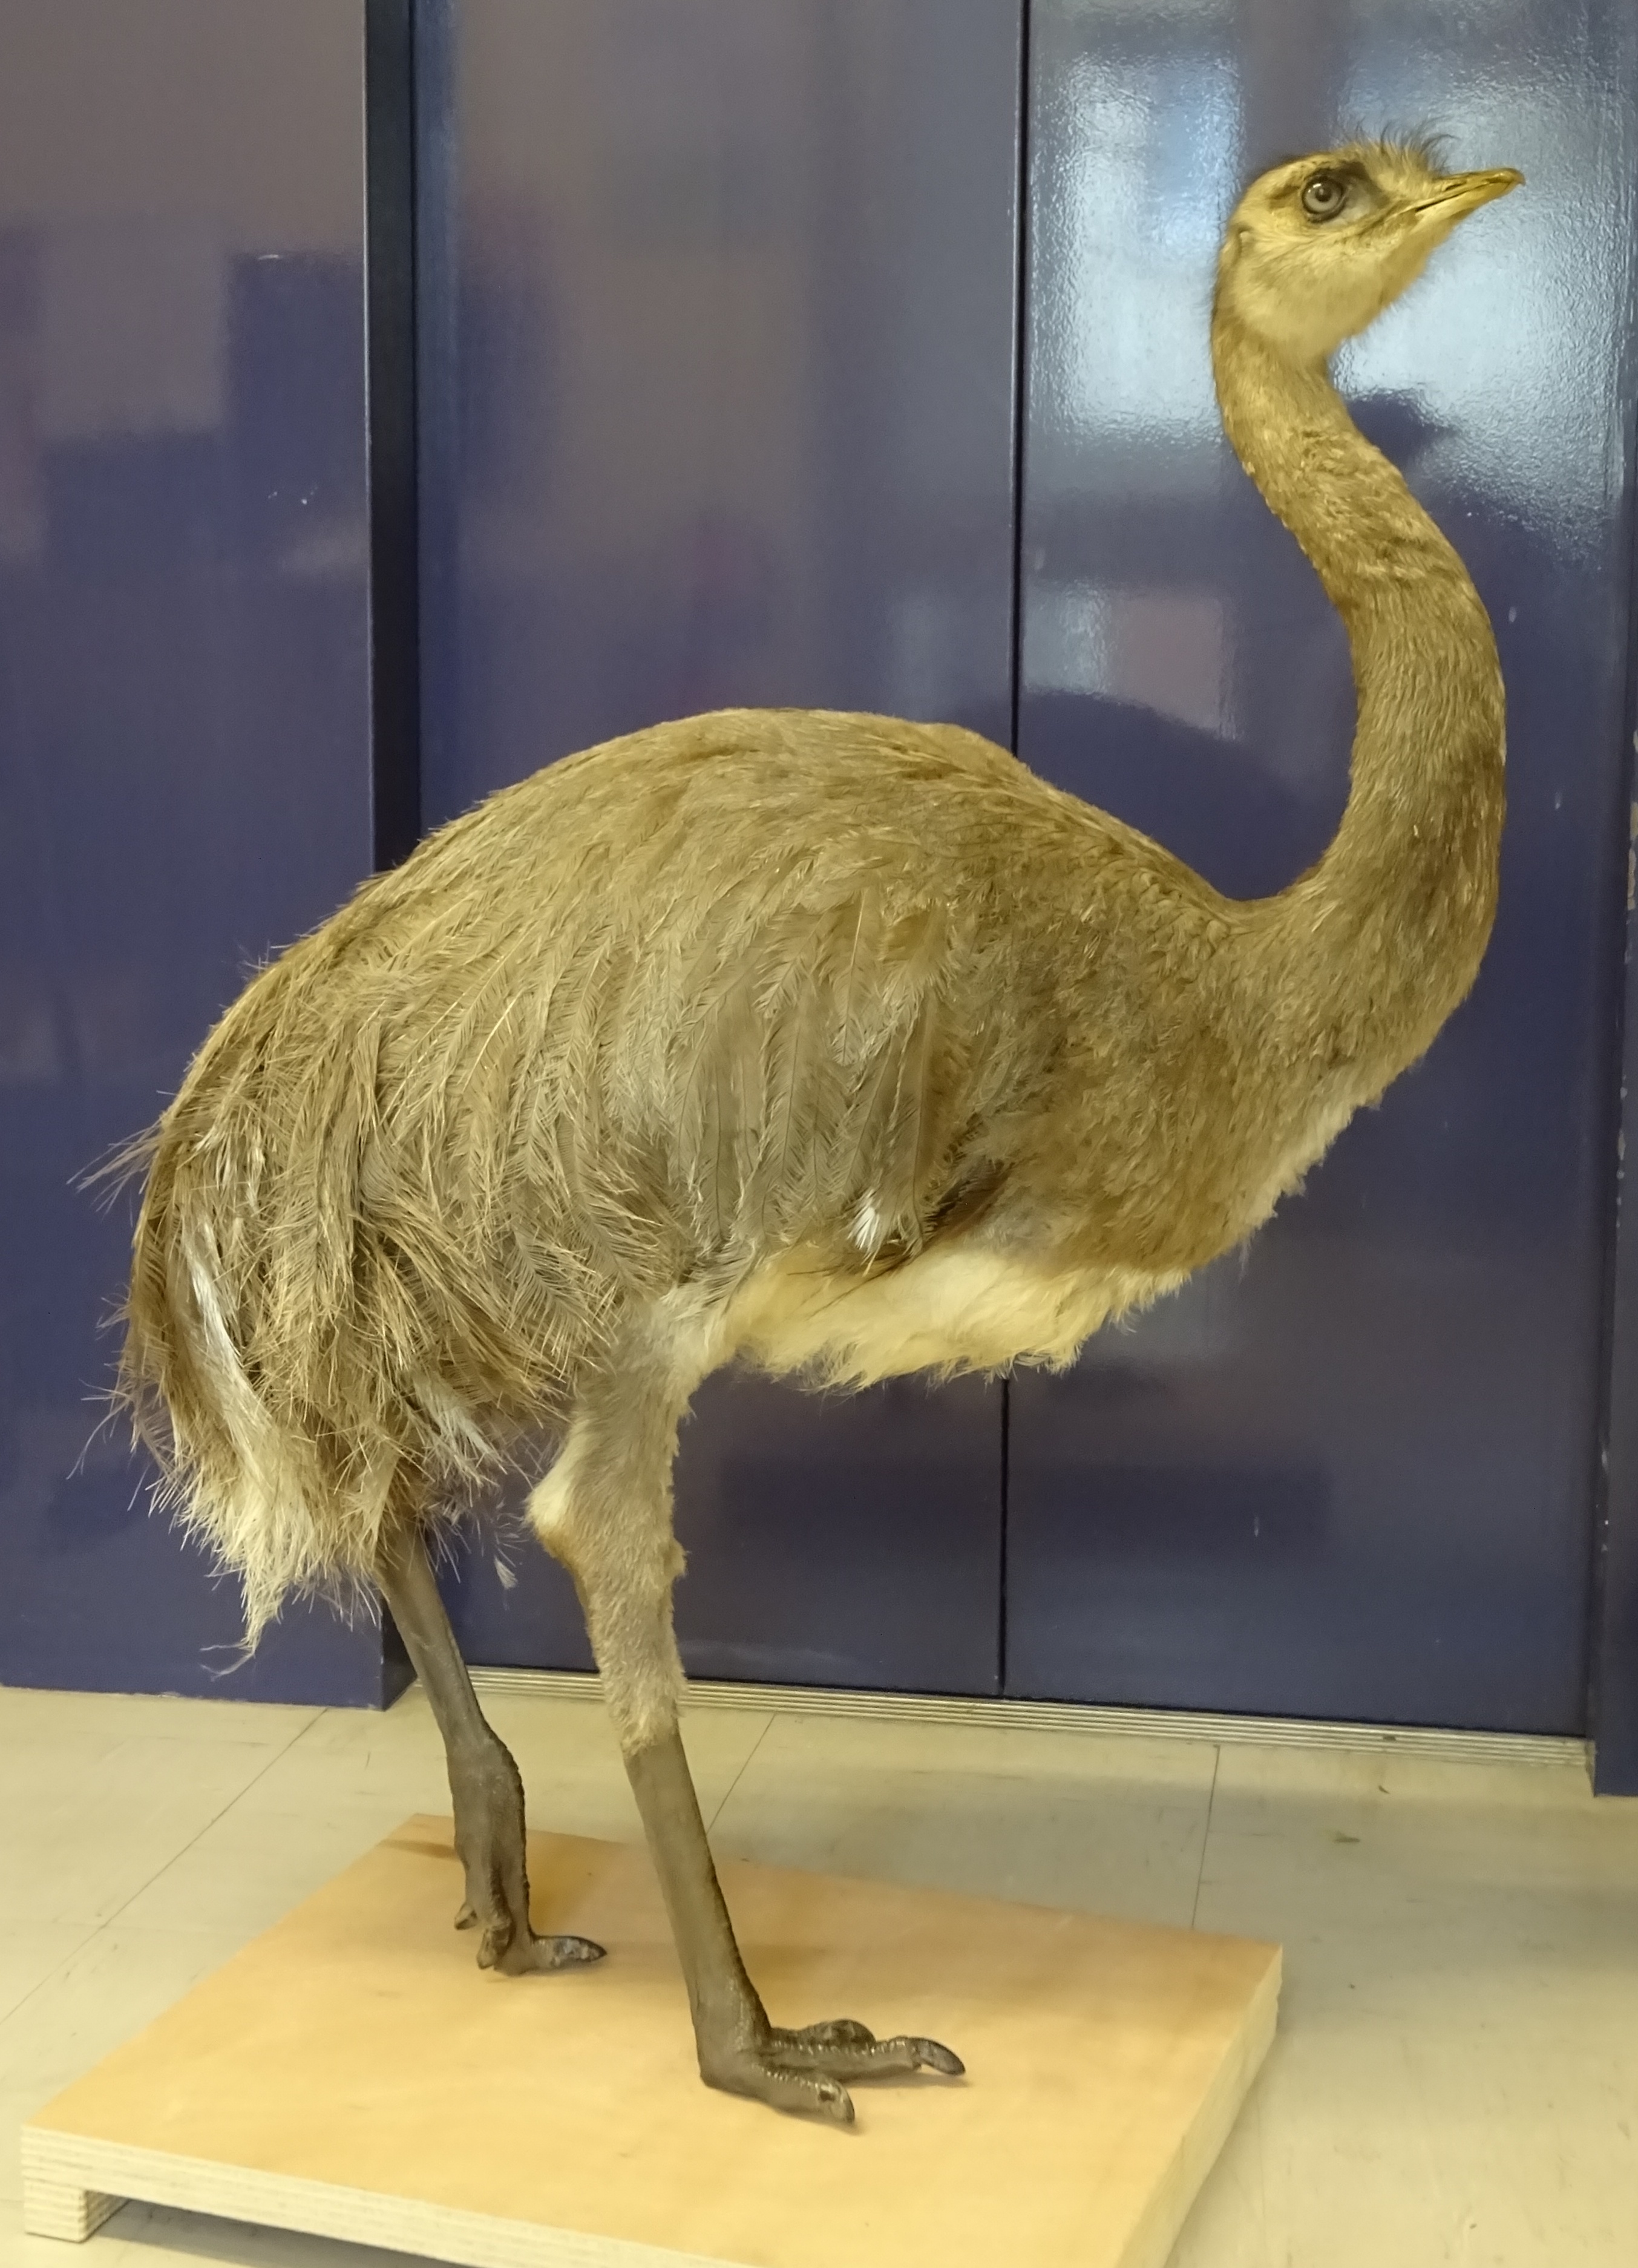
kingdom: Animalia
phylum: Chordata
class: Aves
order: Rheiformes
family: Rheidae
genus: Rhea
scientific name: Rhea pennata
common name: Lesser rhea
